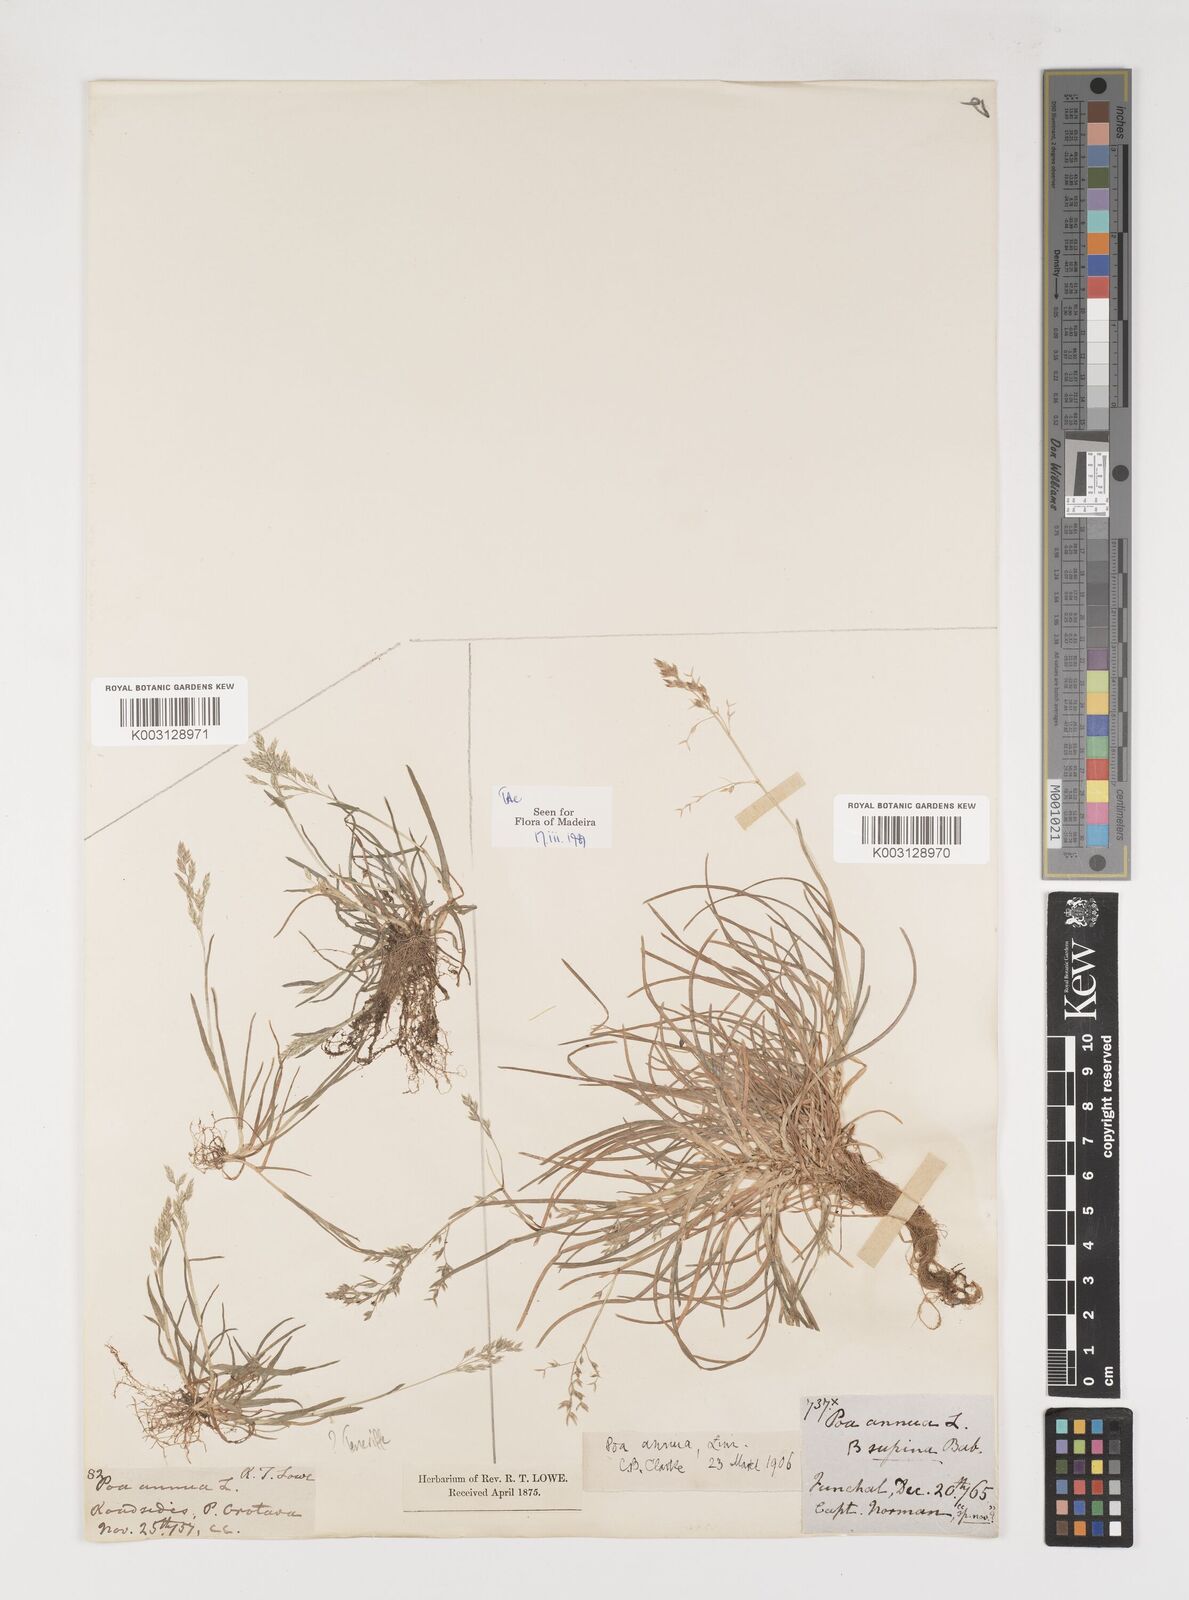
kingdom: Plantae
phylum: Tracheophyta
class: Liliopsida
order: Poales
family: Poaceae
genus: Poa
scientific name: Poa annua
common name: Annual bluegrass
